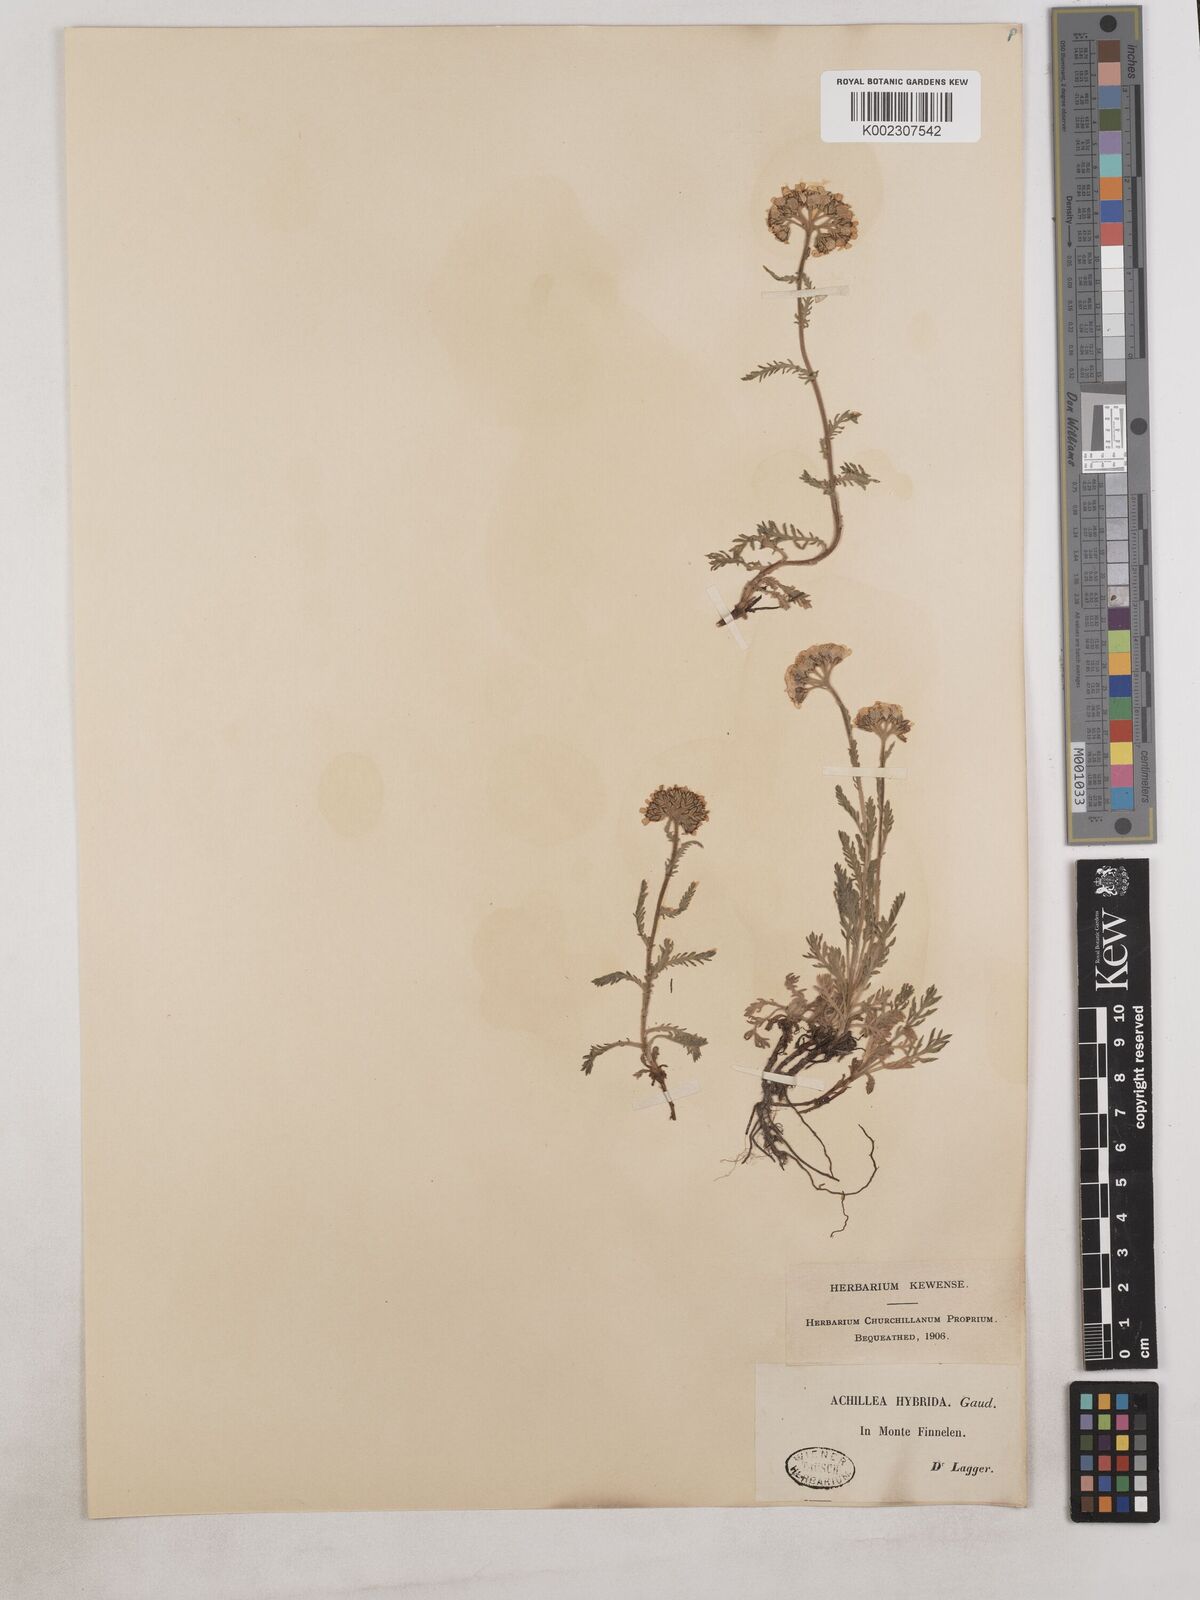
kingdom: Plantae
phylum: Tracheophyta
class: Magnoliopsida
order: Asterales
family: Asteraceae
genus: Achillea
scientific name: Achillea erba-rotta
